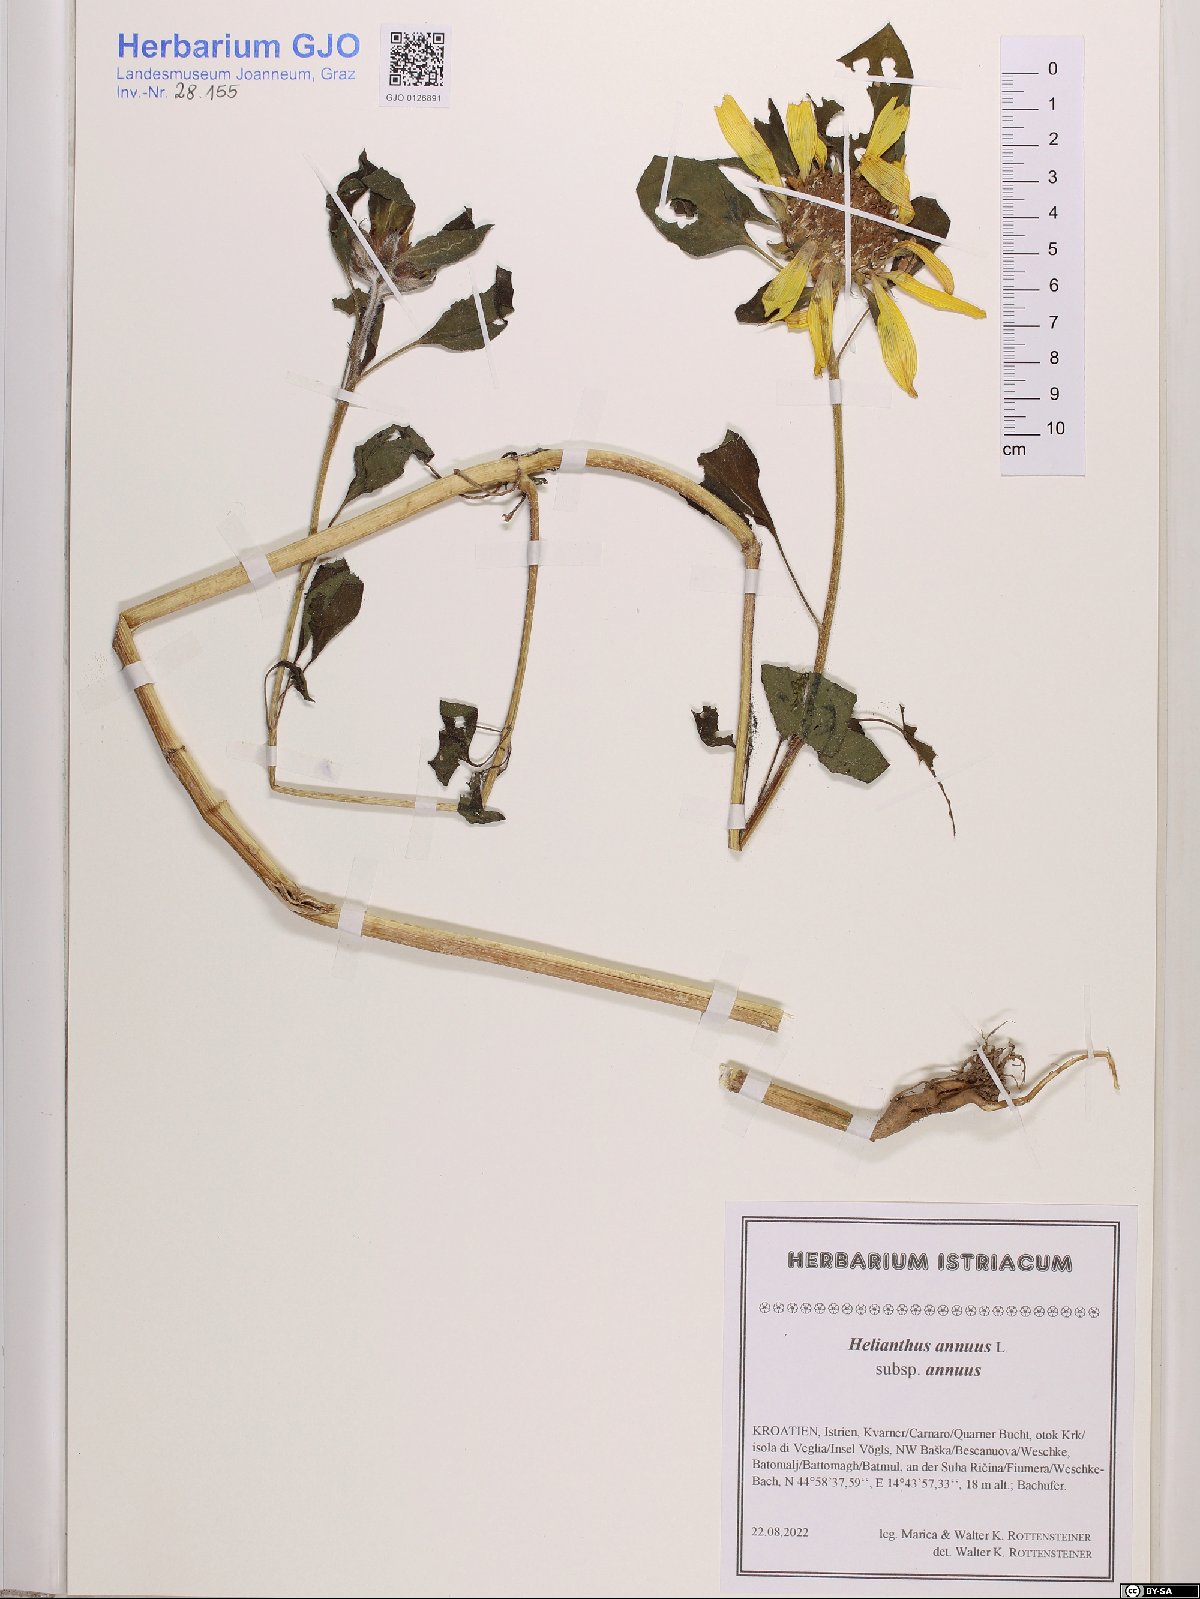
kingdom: Plantae
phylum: Tracheophyta
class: Magnoliopsida
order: Asterales
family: Asteraceae
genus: Helianthus
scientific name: Helianthus annuus
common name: Sunflower
